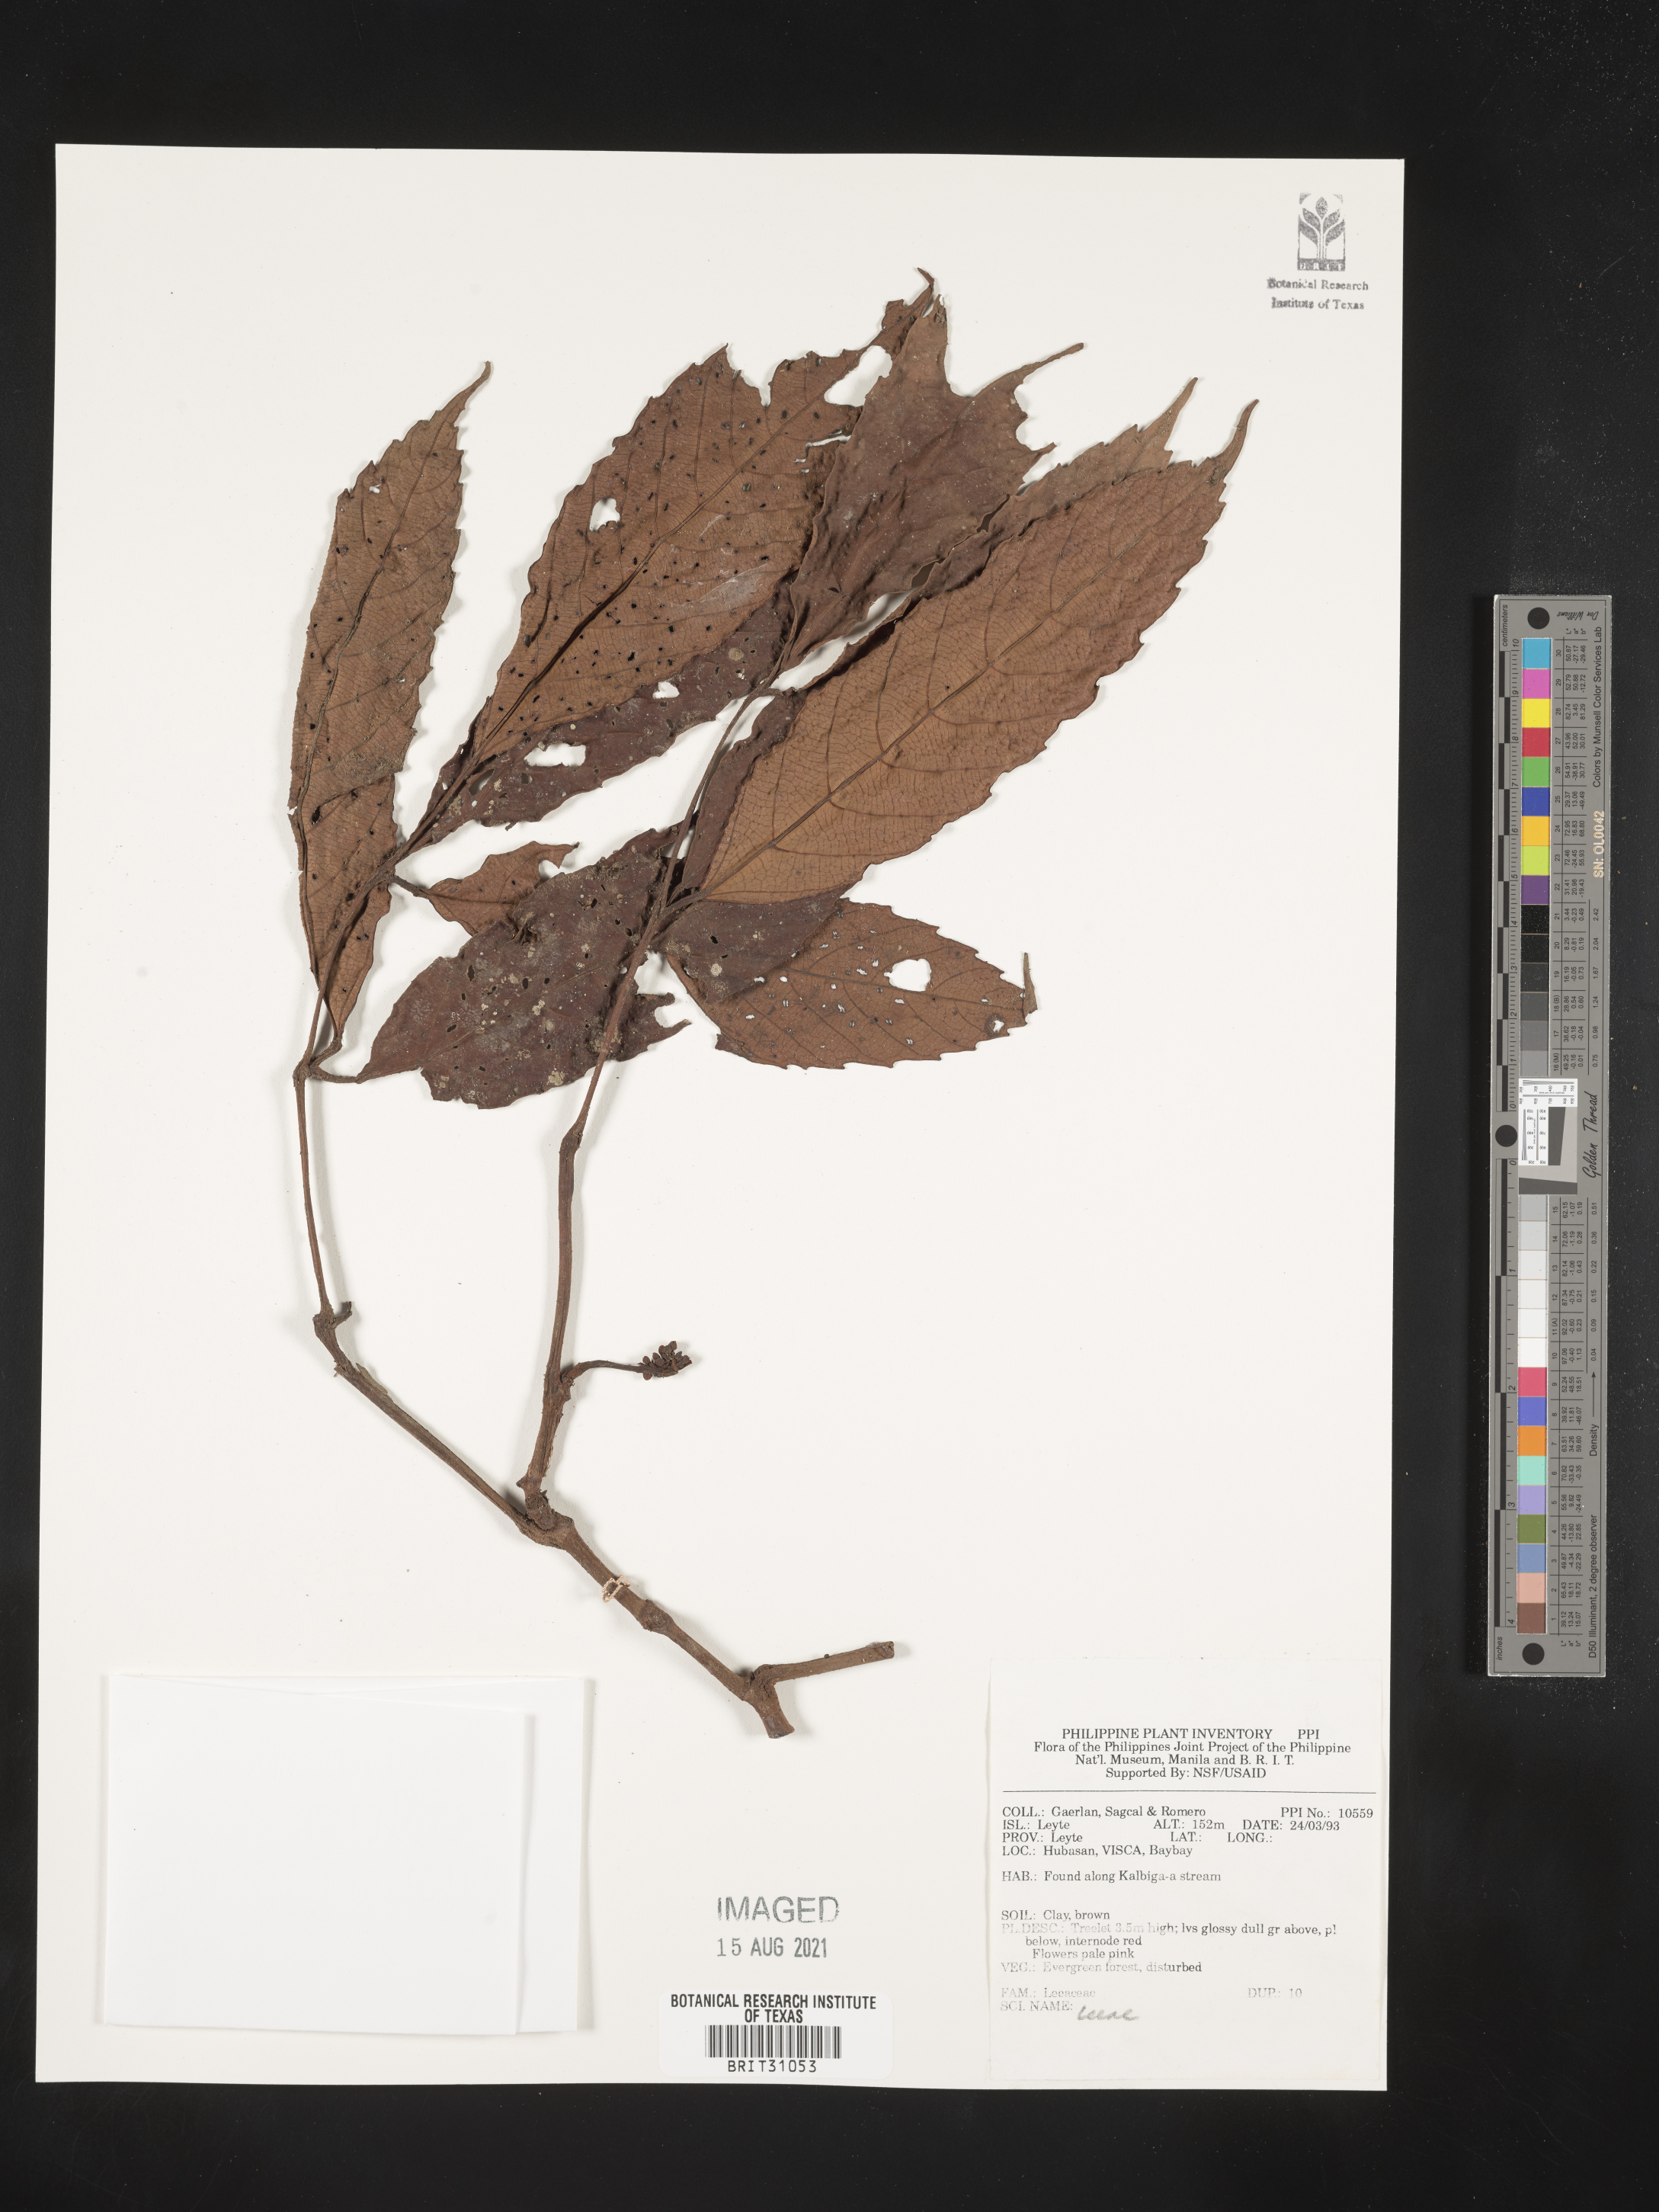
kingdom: Plantae
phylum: Tracheophyta
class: Magnoliopsida
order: Vitales
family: Vitaceae
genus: Leea
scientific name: Leea
